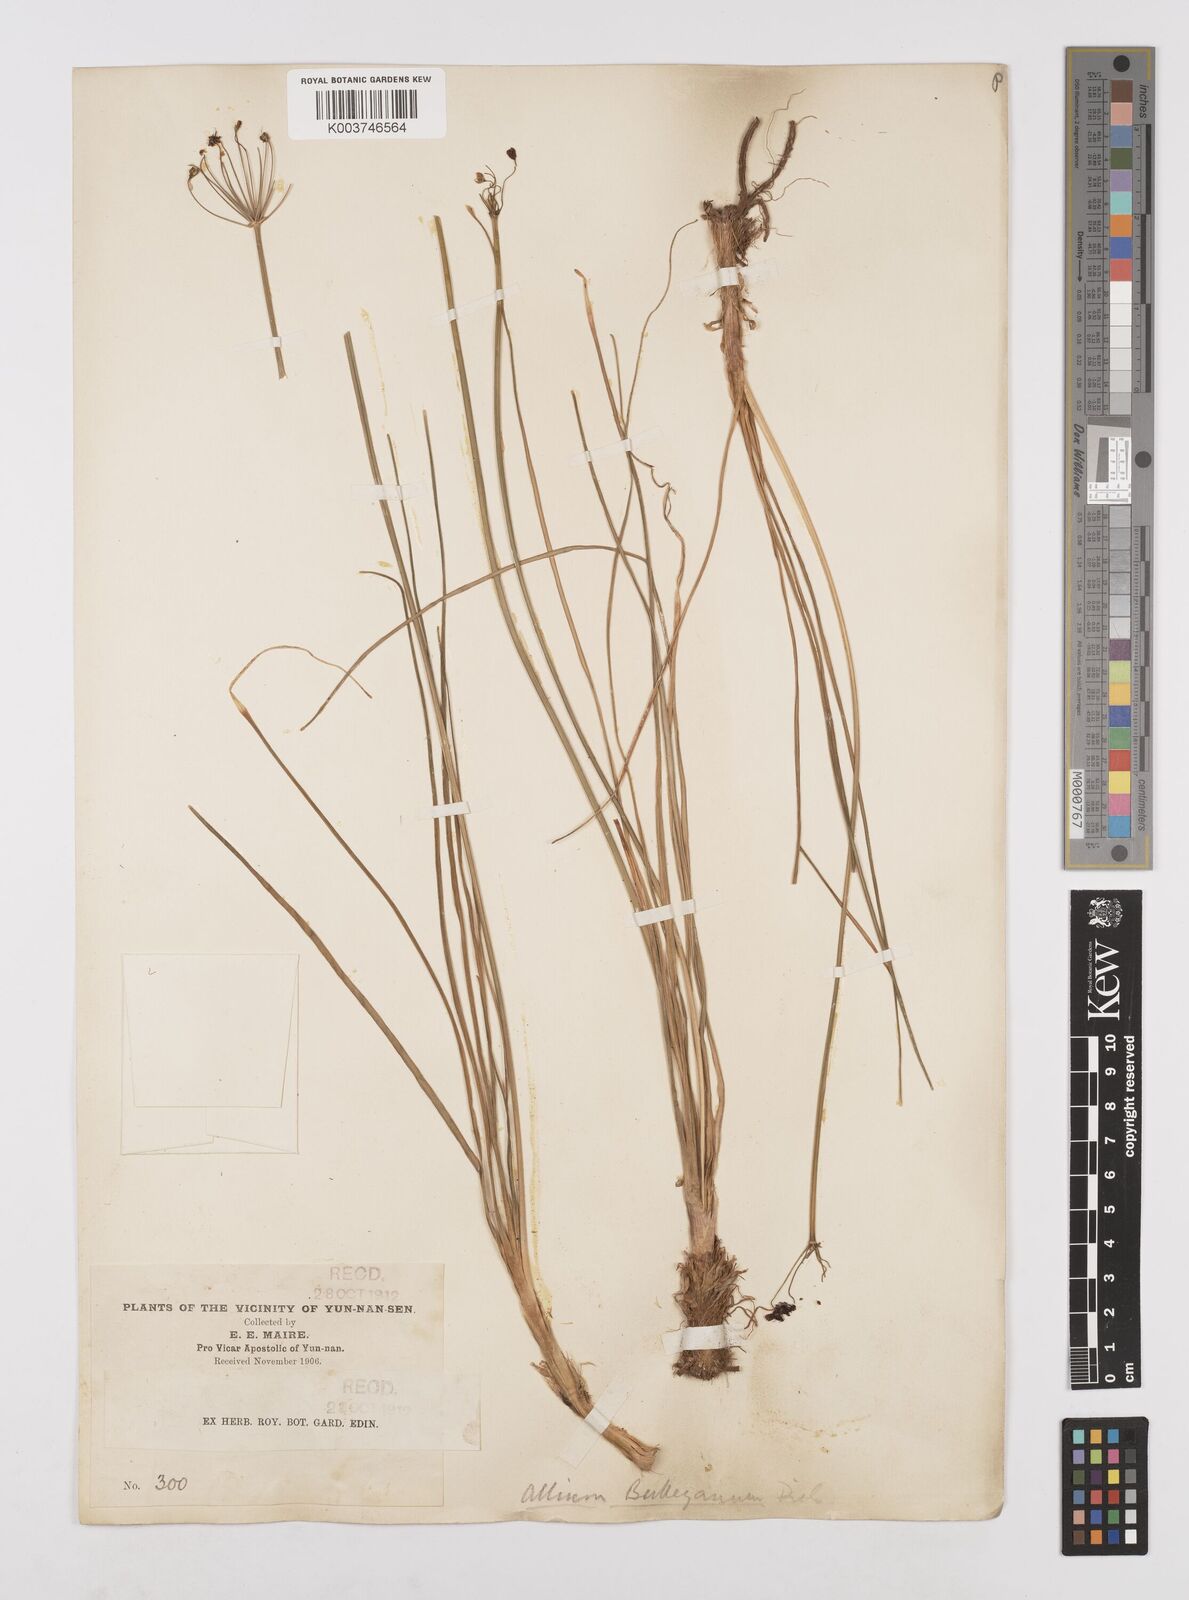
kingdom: Plantae
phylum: Tracheophyta
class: Liliopsida
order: Asparagales
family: Amaryllidaceae
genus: Allium
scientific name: Allium wallichii
